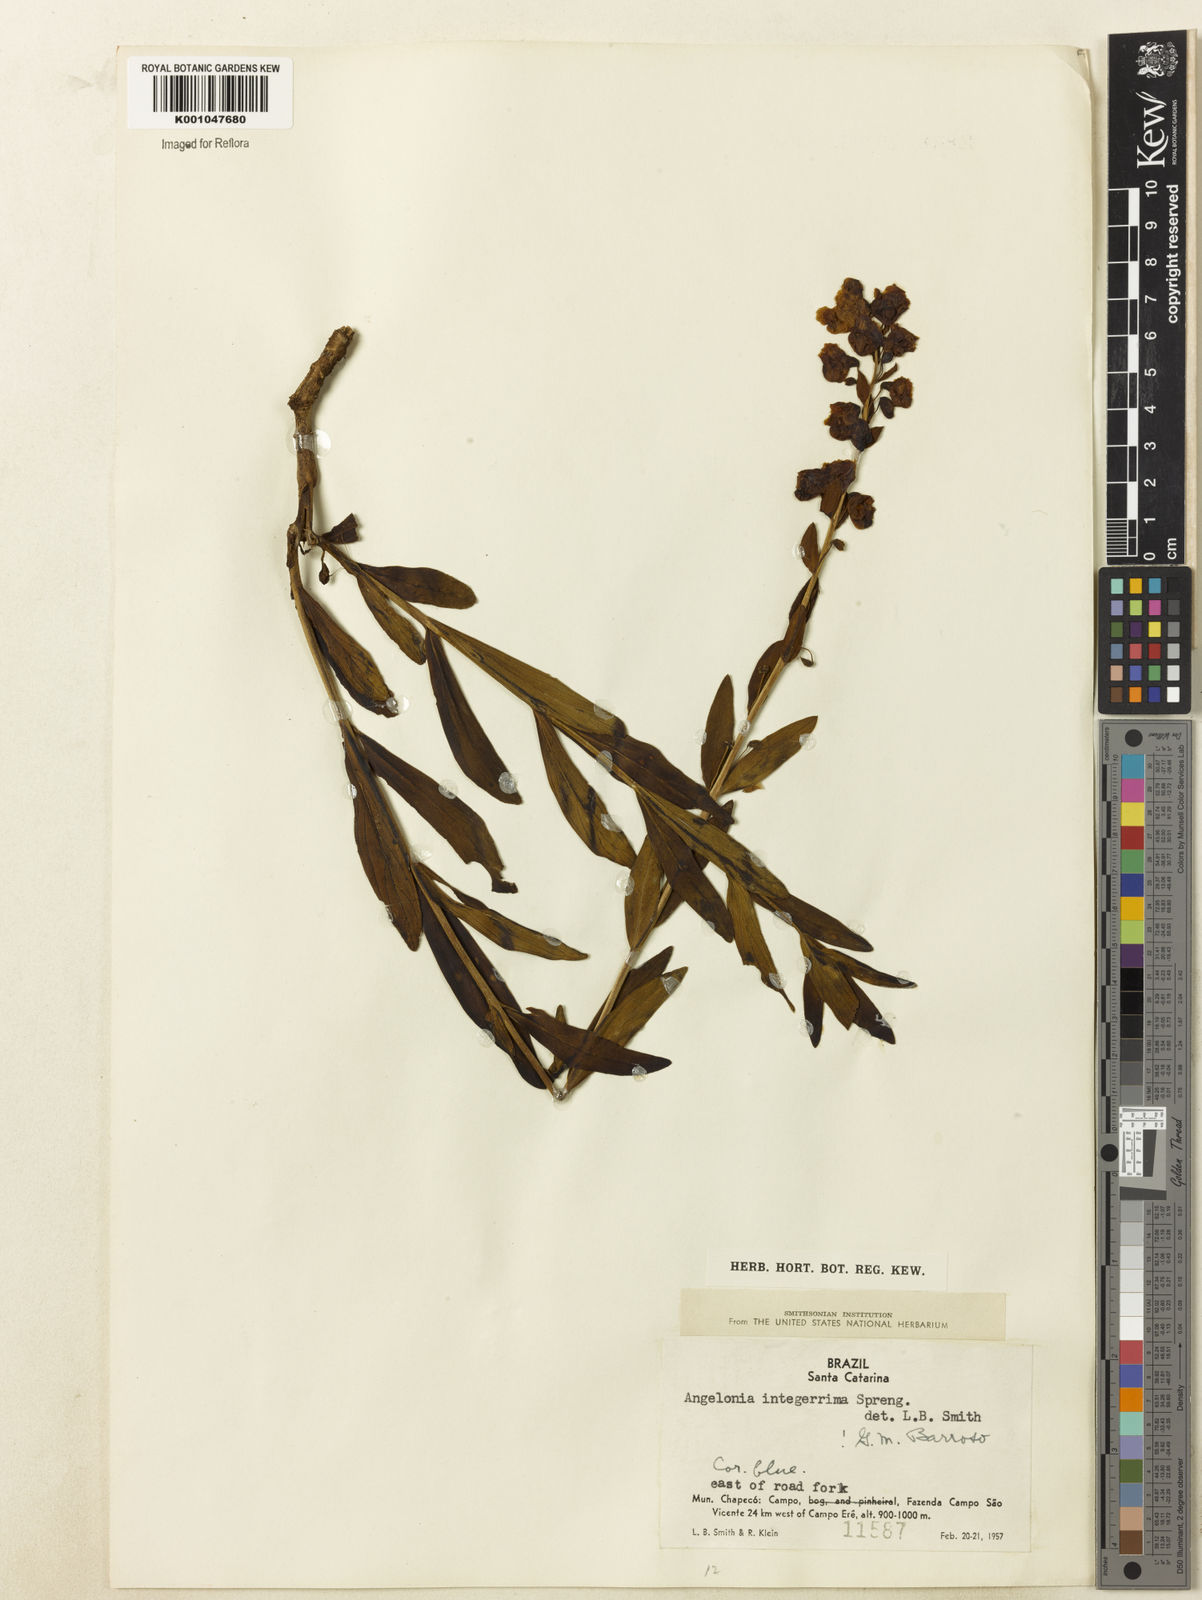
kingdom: Plantae
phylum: Tracheophyta
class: Magnoliopsida
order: Lamiales
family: Plantaginaceae
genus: Angelonia
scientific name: Angelonia integerrima
